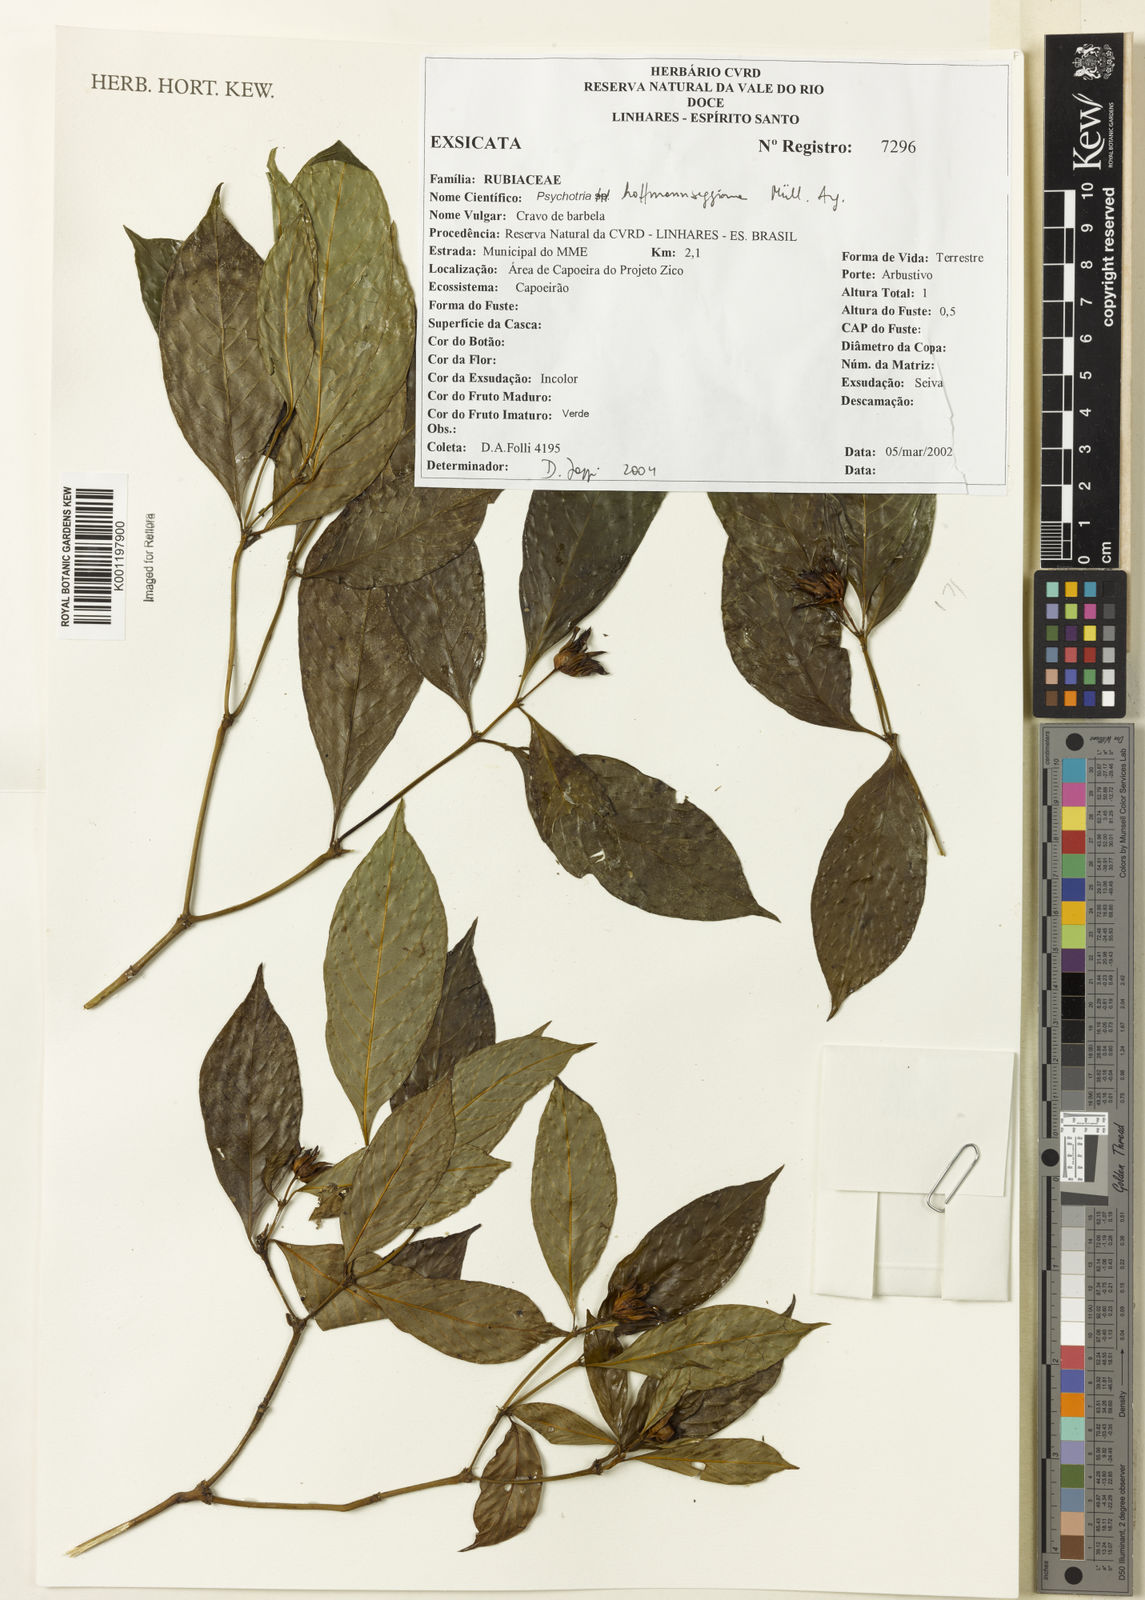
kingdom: Plantae
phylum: Tracheophyta
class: Magnoliopsida
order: Gentianales
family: Rubiaceae
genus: Psychotria
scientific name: Psychotria
